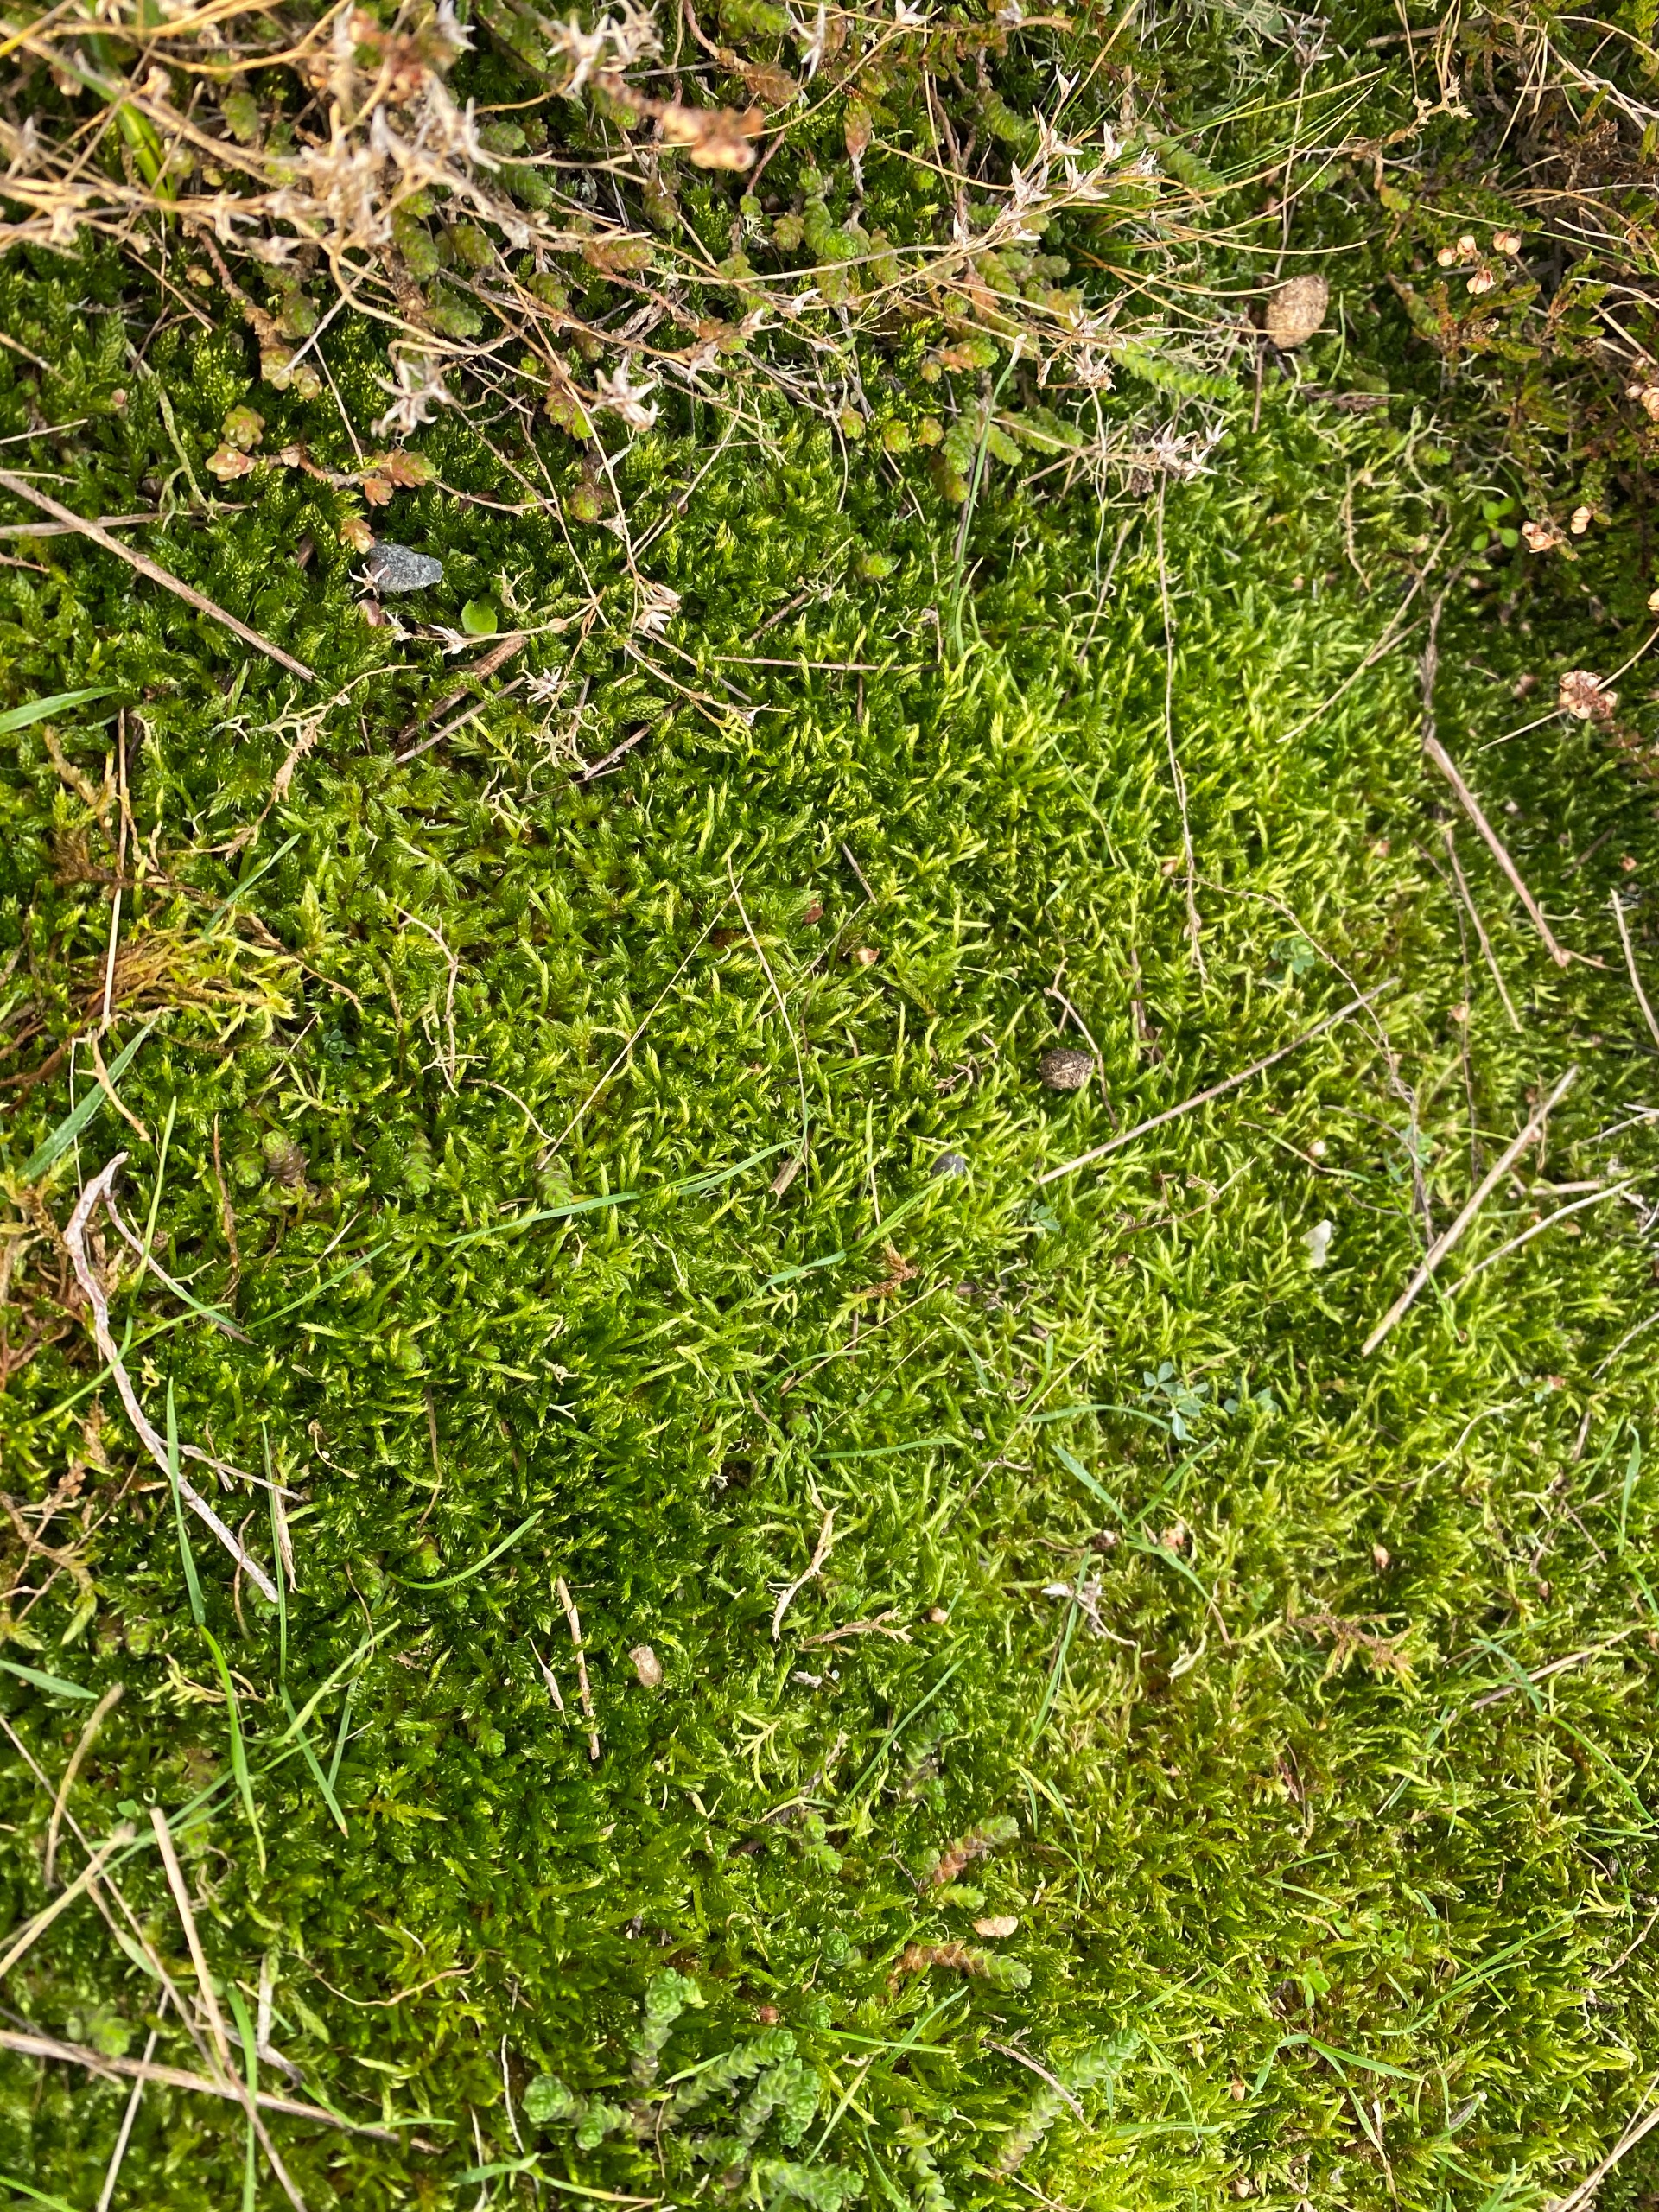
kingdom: Plantae
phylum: Bryophyta
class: Bryopsida
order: Hypnales
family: Hypnaceae
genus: Hypnum
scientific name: Hypnum cupressiforme
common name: Almindelig cypresmos
